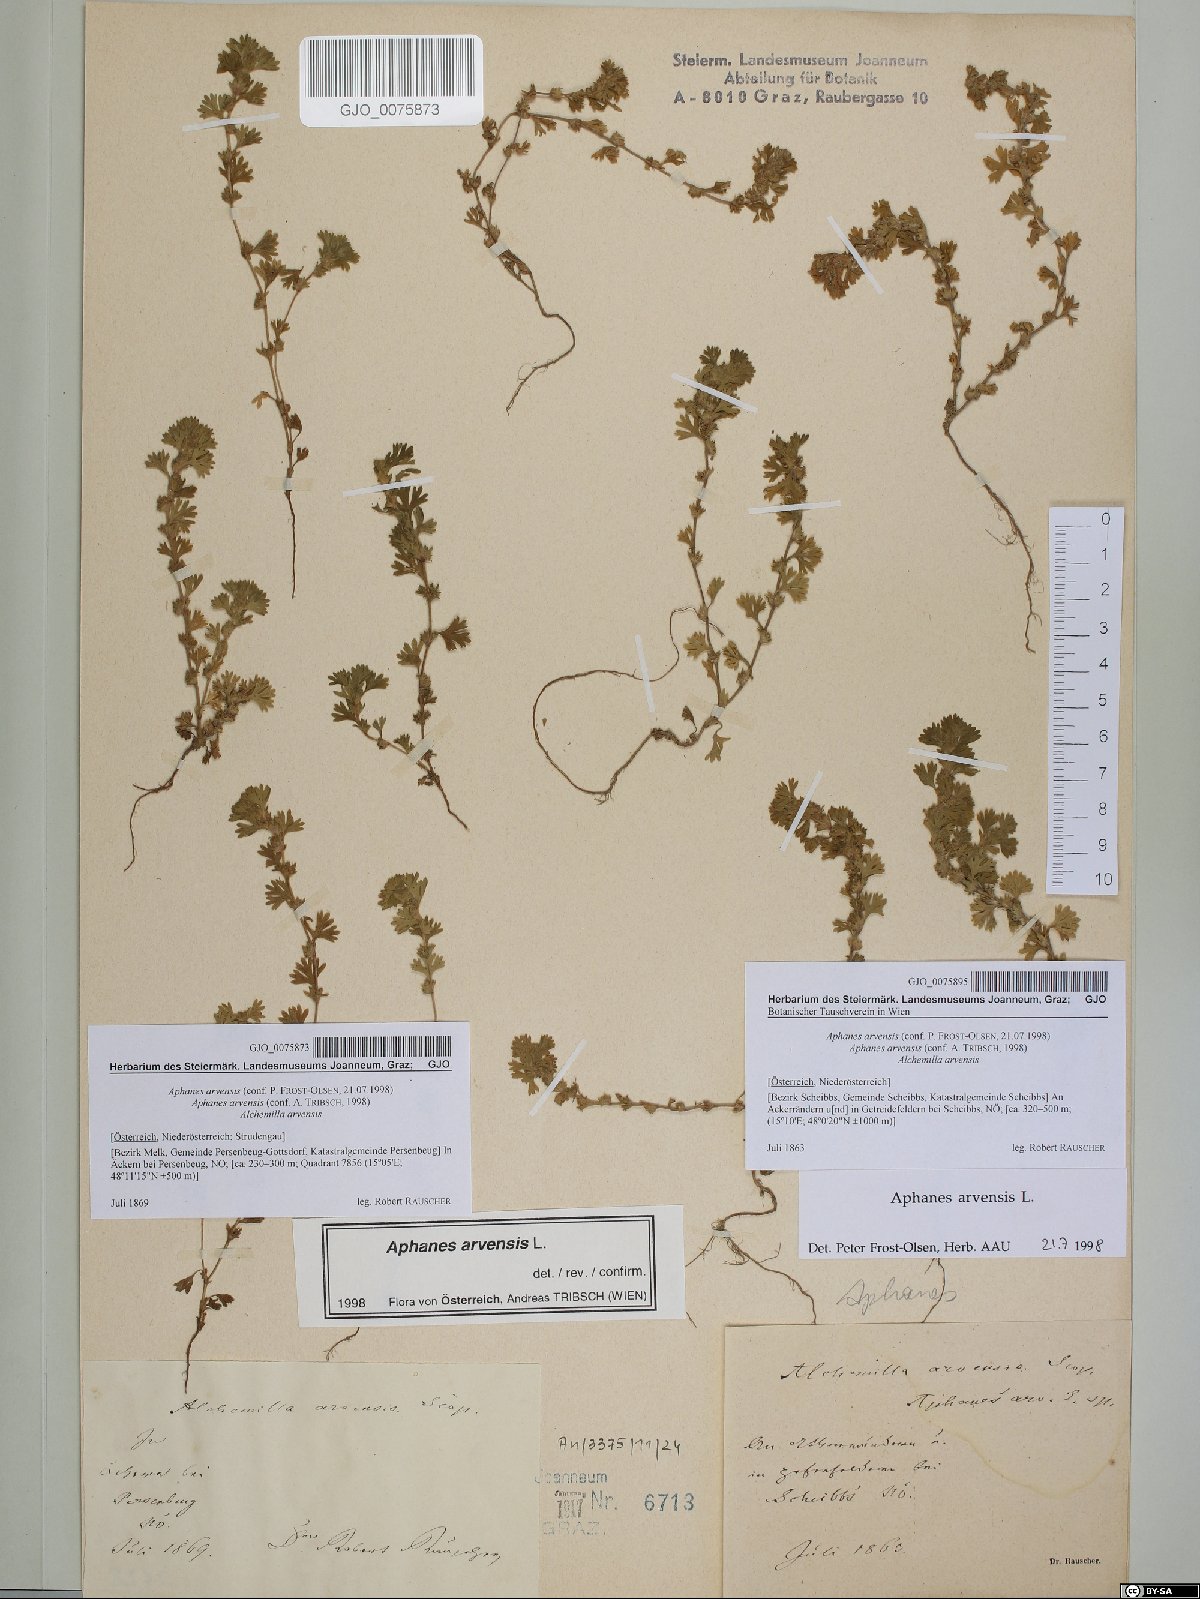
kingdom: Plantae
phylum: Tracheophyta
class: Magnoliopsida
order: Rosales
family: Rosaceae
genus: Aphanes
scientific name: Aphanes arvensis
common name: Parsley-piert
